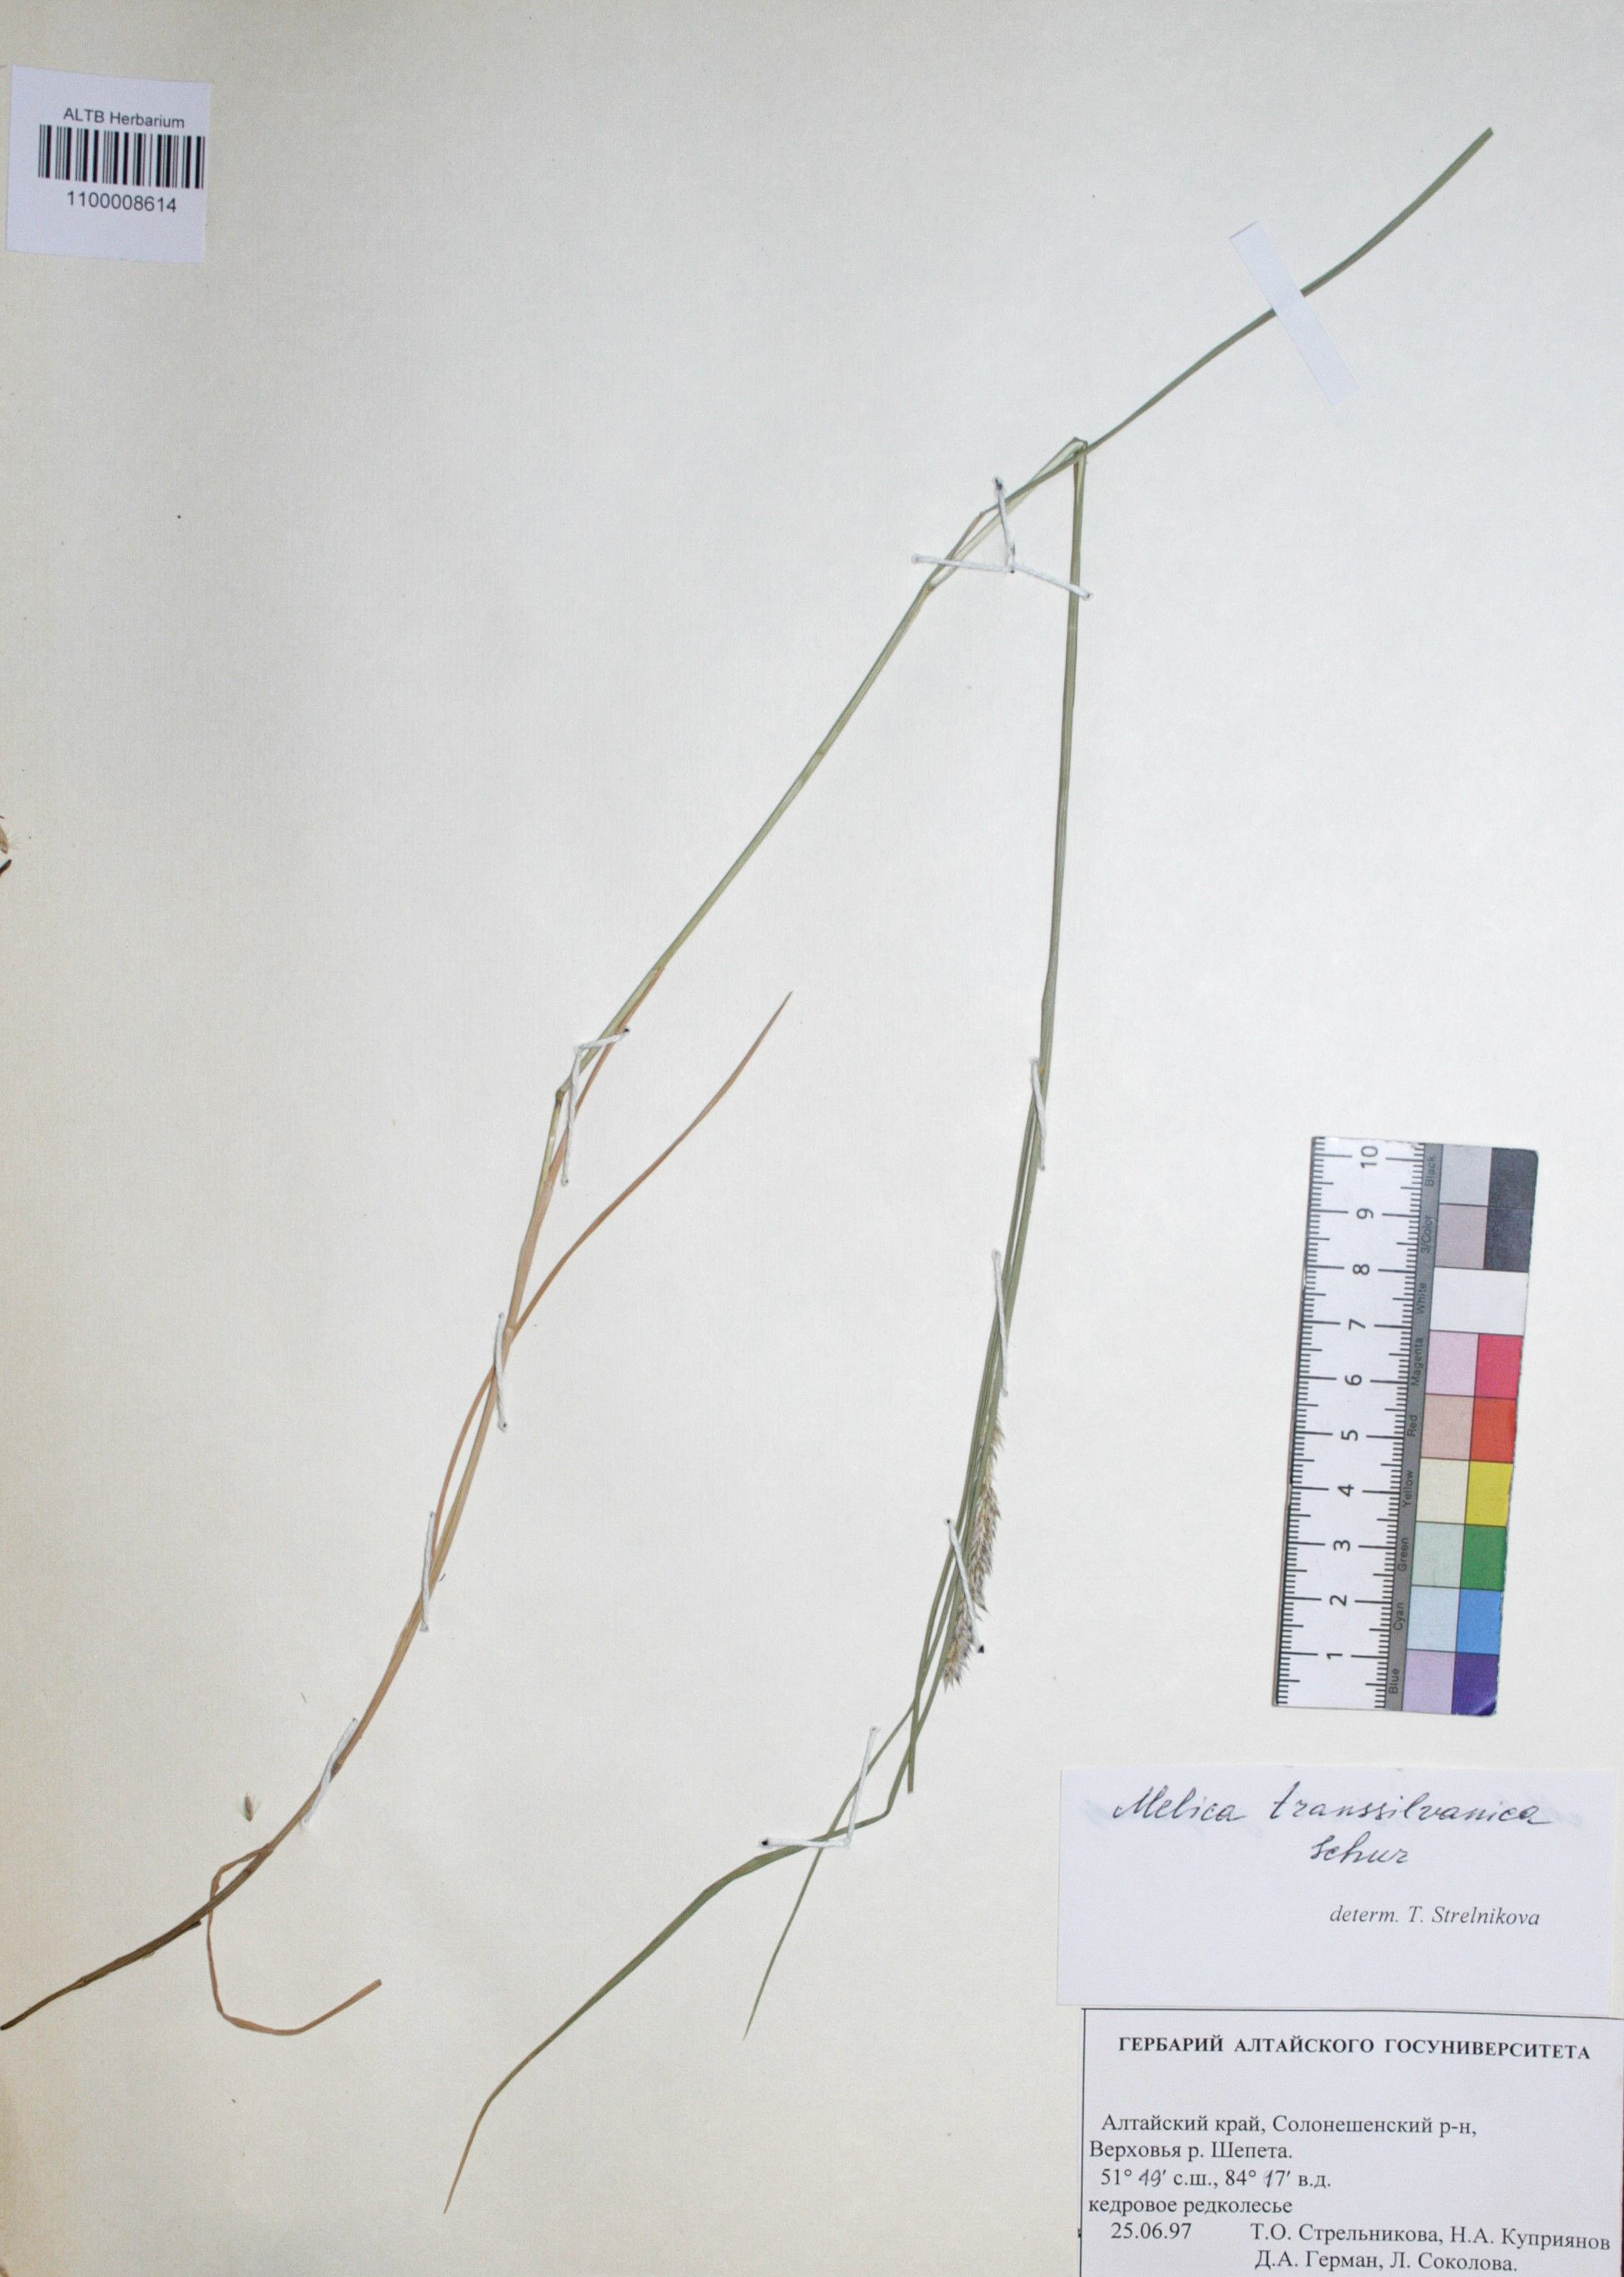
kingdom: Plantae
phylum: Tracheophyta
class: Liliopsida
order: Poales
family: Poaceae
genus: Melica
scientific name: Melica transsilvanica
